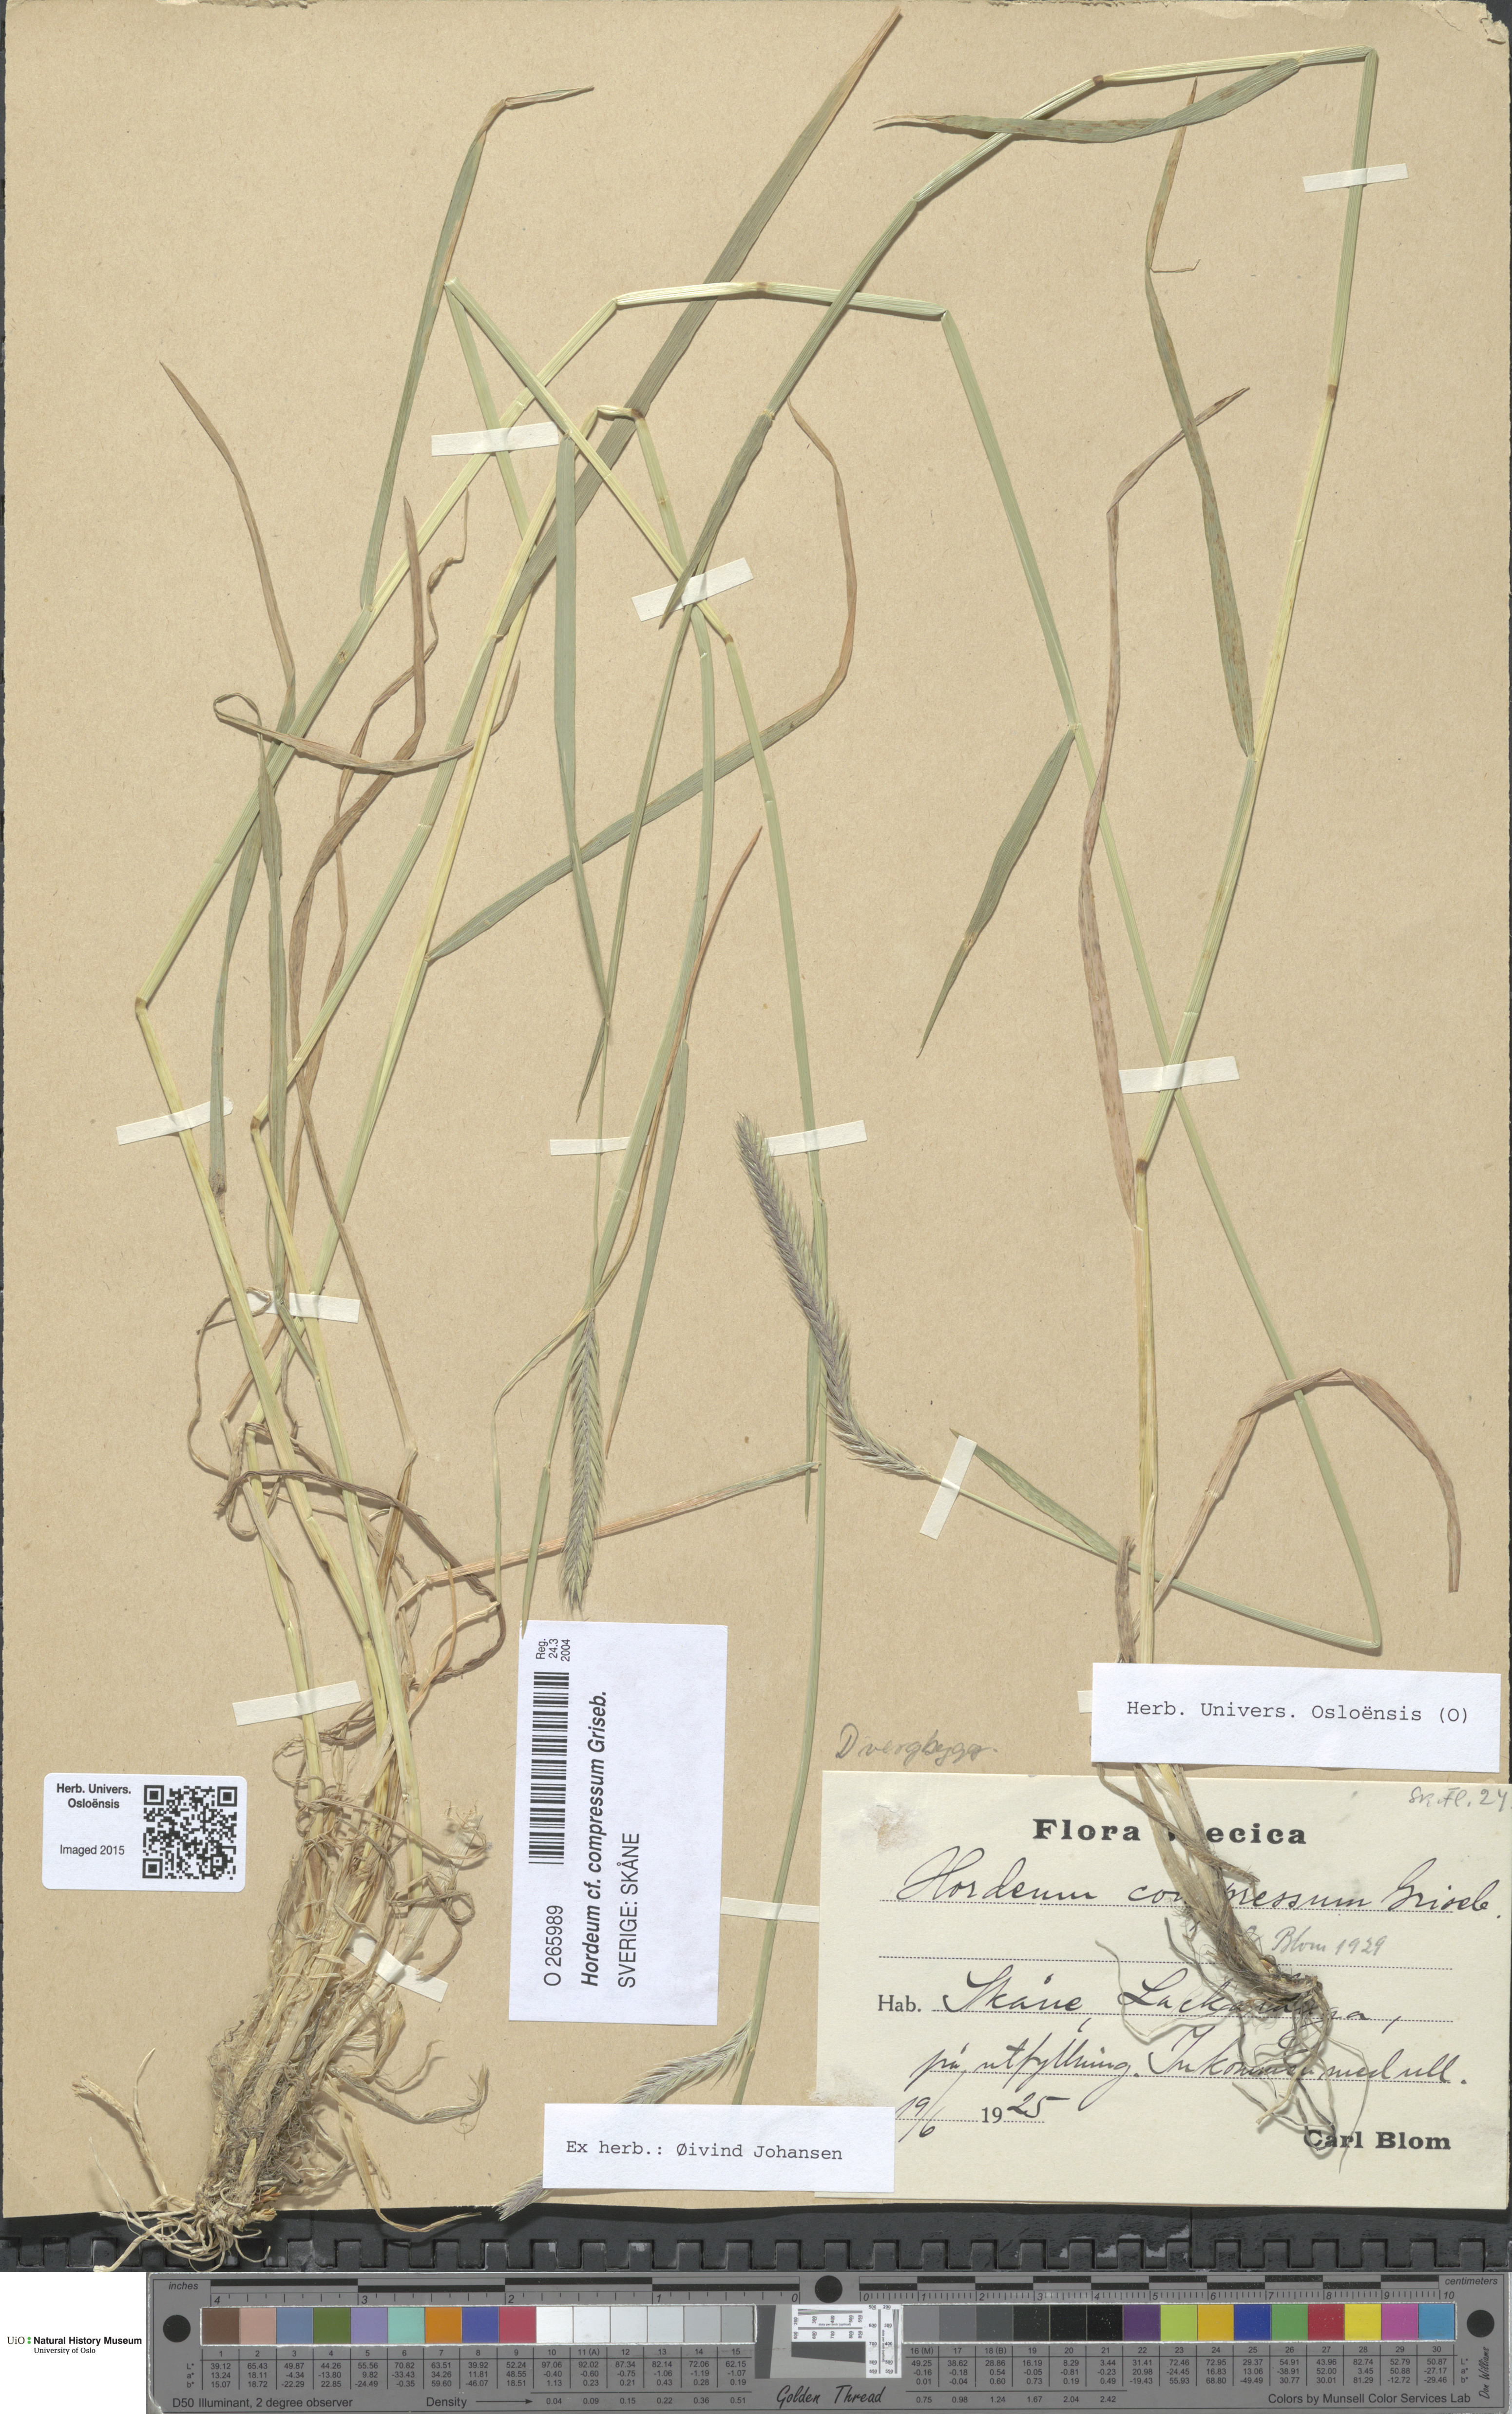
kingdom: Plantae
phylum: Tracheophyta
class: Liliopsida
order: Poales
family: Poaceae
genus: Hordeum
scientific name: Hordeum stenostachys
